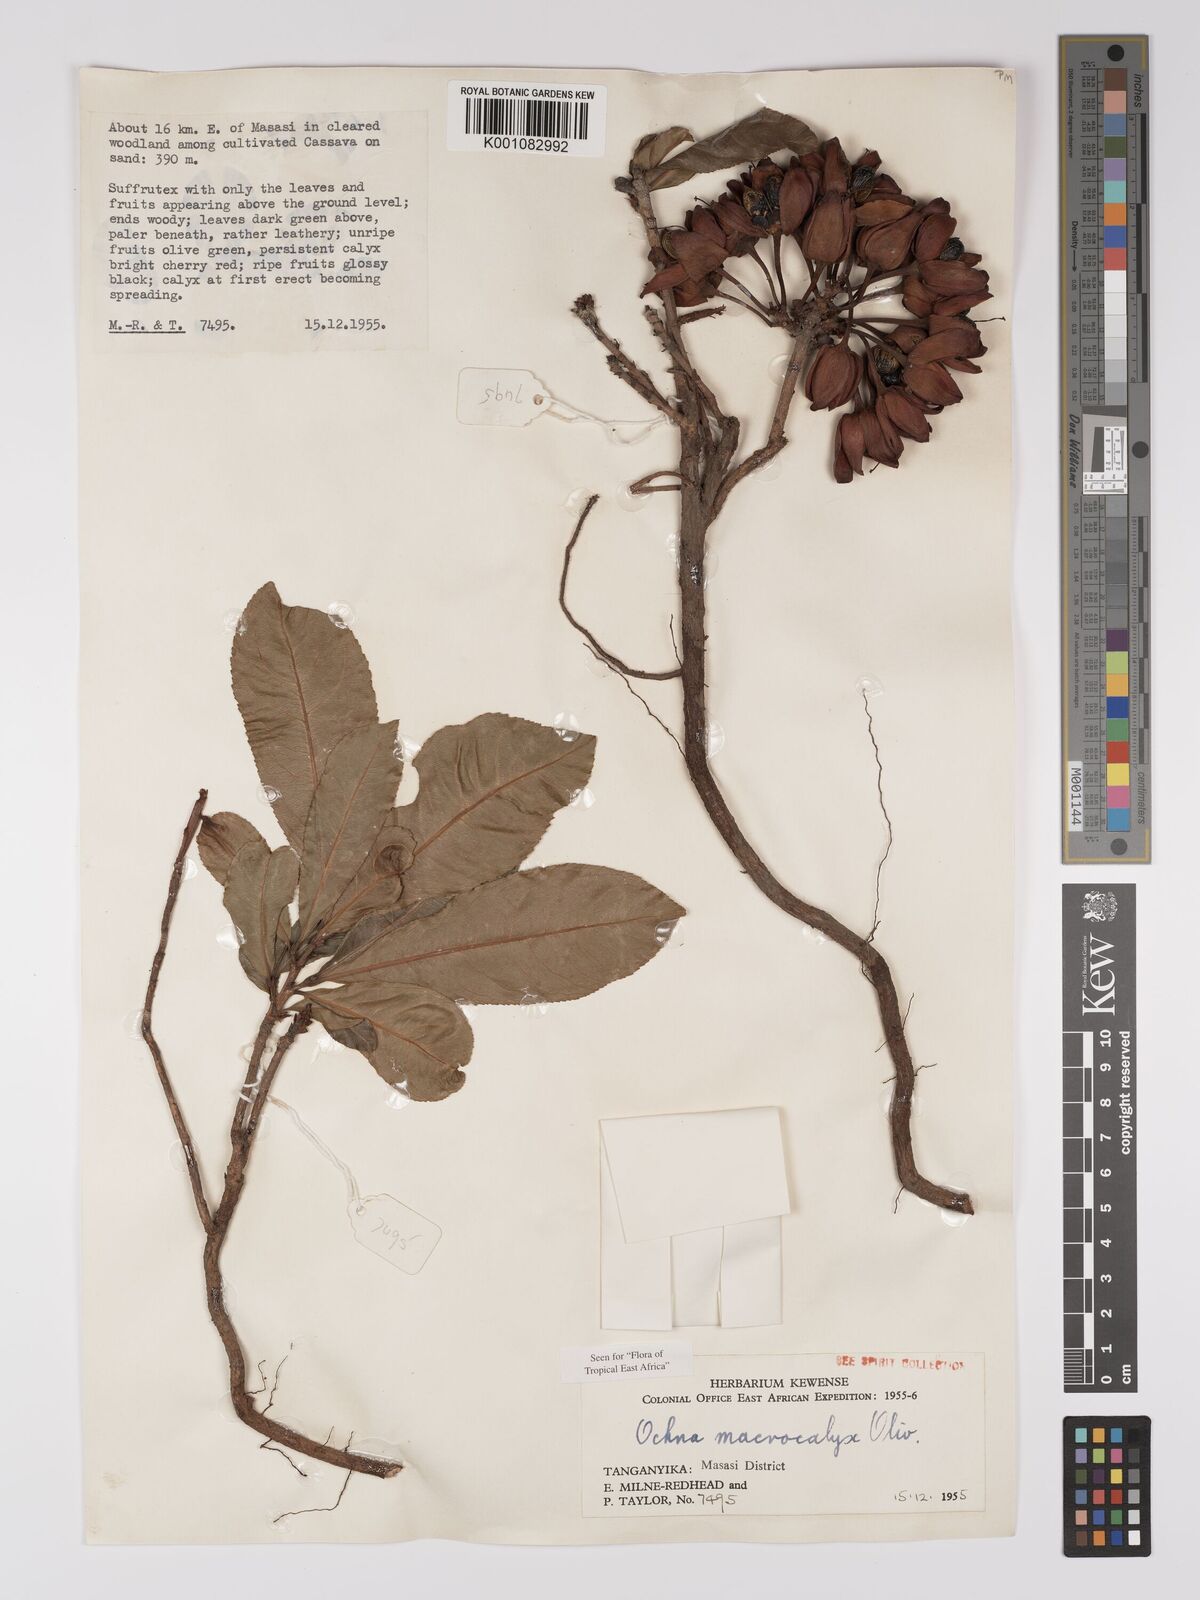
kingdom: Plantae
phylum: Tracheophyta
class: Magnoliopsida
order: Malpighiales
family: Ochnaceae
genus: Ochna
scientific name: Ochna macrocalyx
